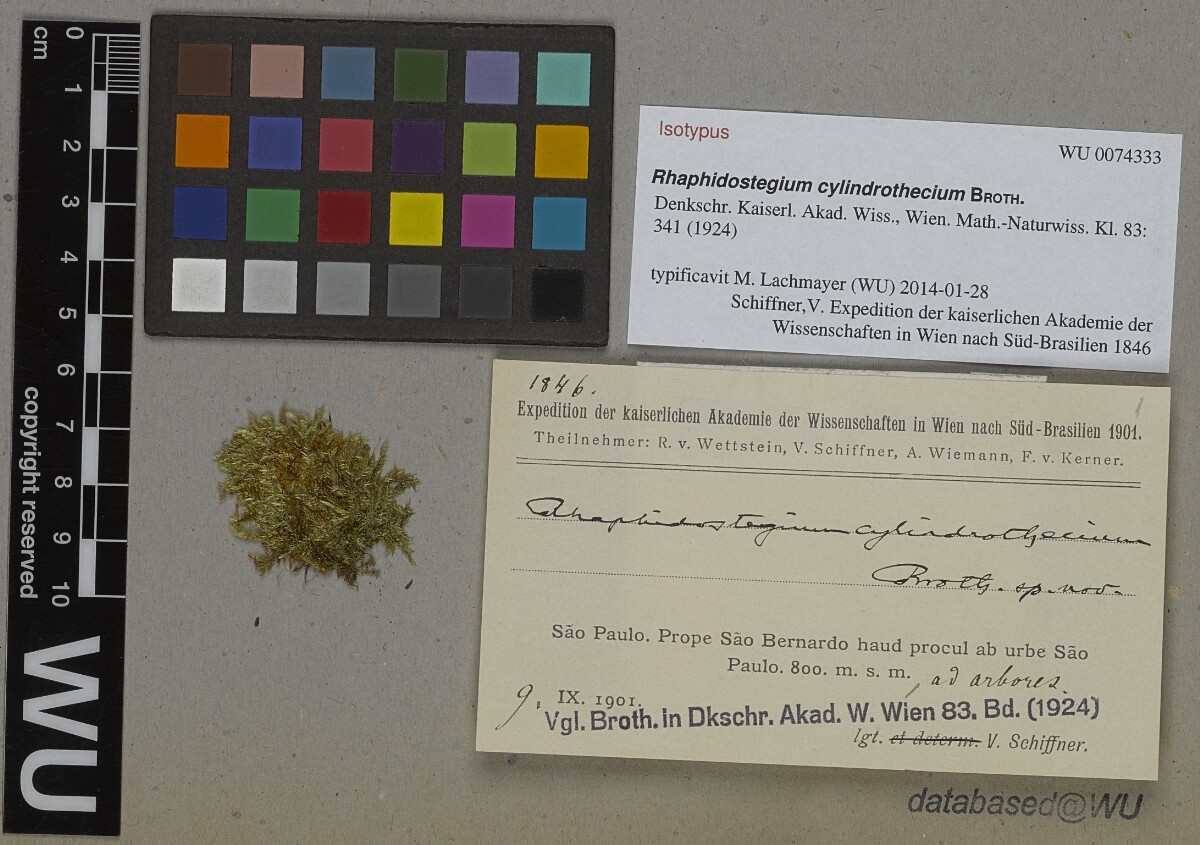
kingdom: Plantae
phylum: Bryophyta
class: Bryopsida
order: Hypnales
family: Sematophyllaceae
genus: Aptychopsis
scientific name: Aptychopsis cylindrothecia
